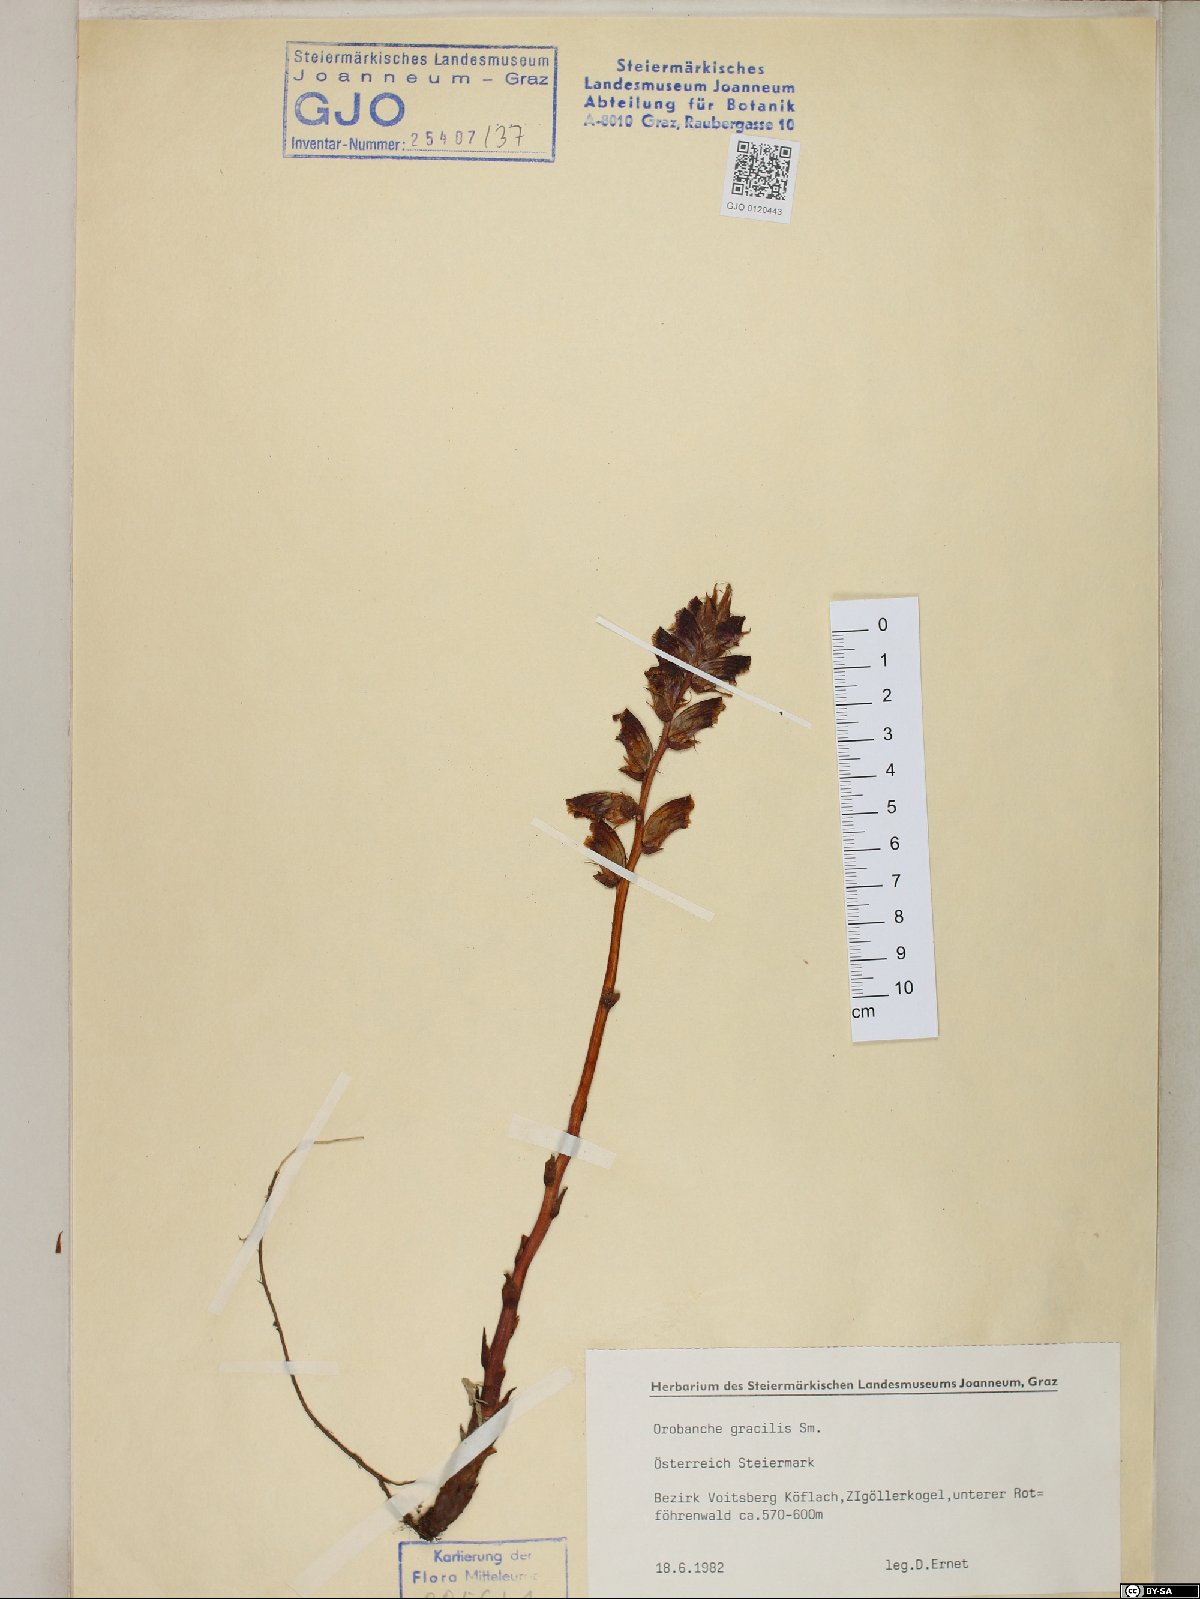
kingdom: Plantae
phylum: Tracheophyta
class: Magnoliopsida
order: Lamiales
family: Orobanchaceae
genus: Orobanche
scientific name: Orobanche gracilis
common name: Slender broomrape
